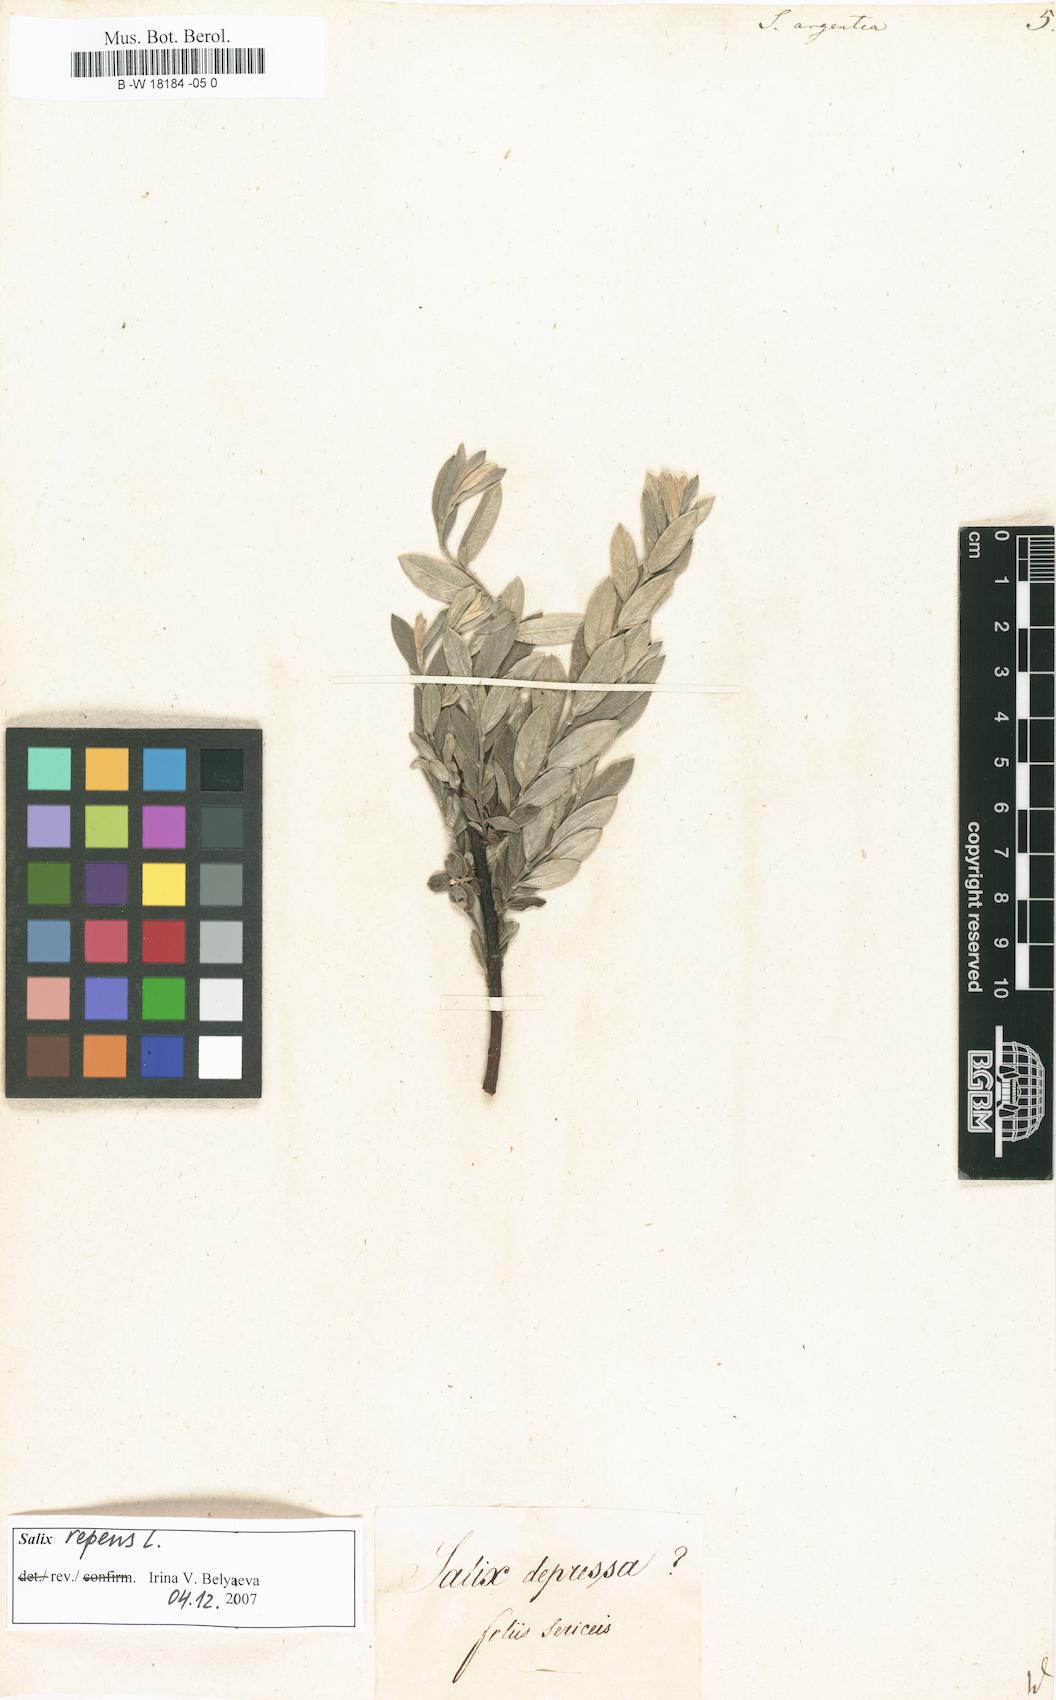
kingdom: Plantae
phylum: Tracheophyta
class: Magnoliopsida
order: Malpighiales
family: Salicaceae
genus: Salix
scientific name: Salix repens
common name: Creeping willow
